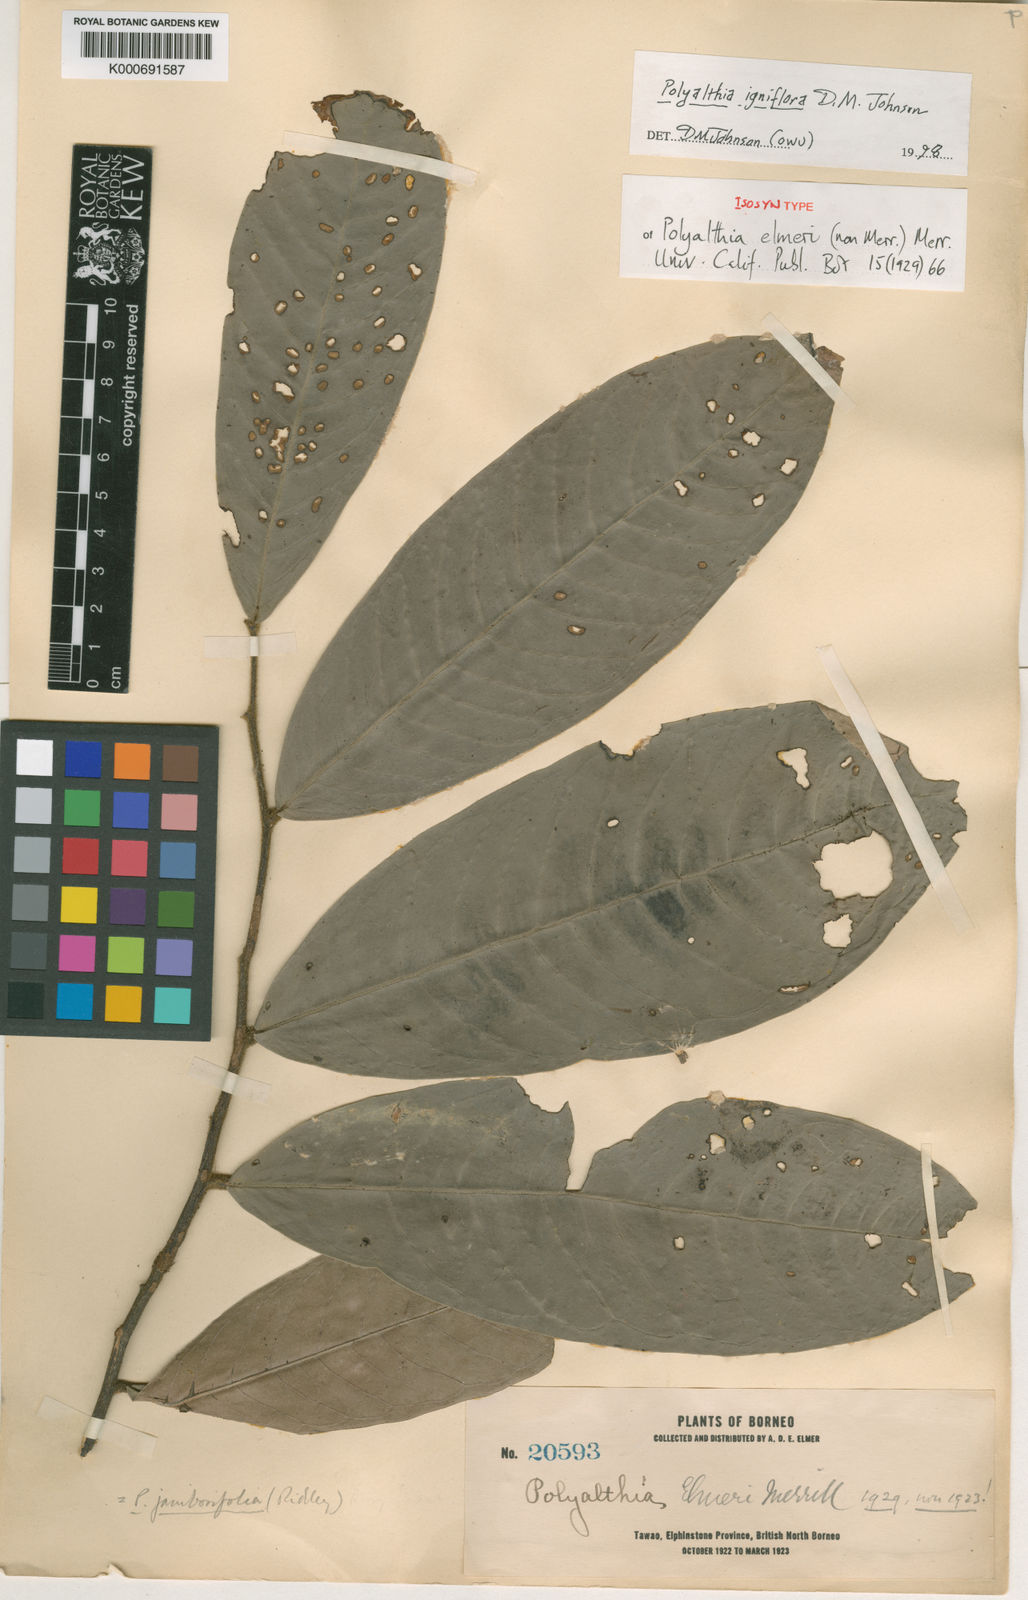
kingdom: Plantae
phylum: Tracheophyta
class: Magnoliopsida
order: Magnoliales
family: Annonaceae
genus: Polyalthia
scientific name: Polyalthia microtus
